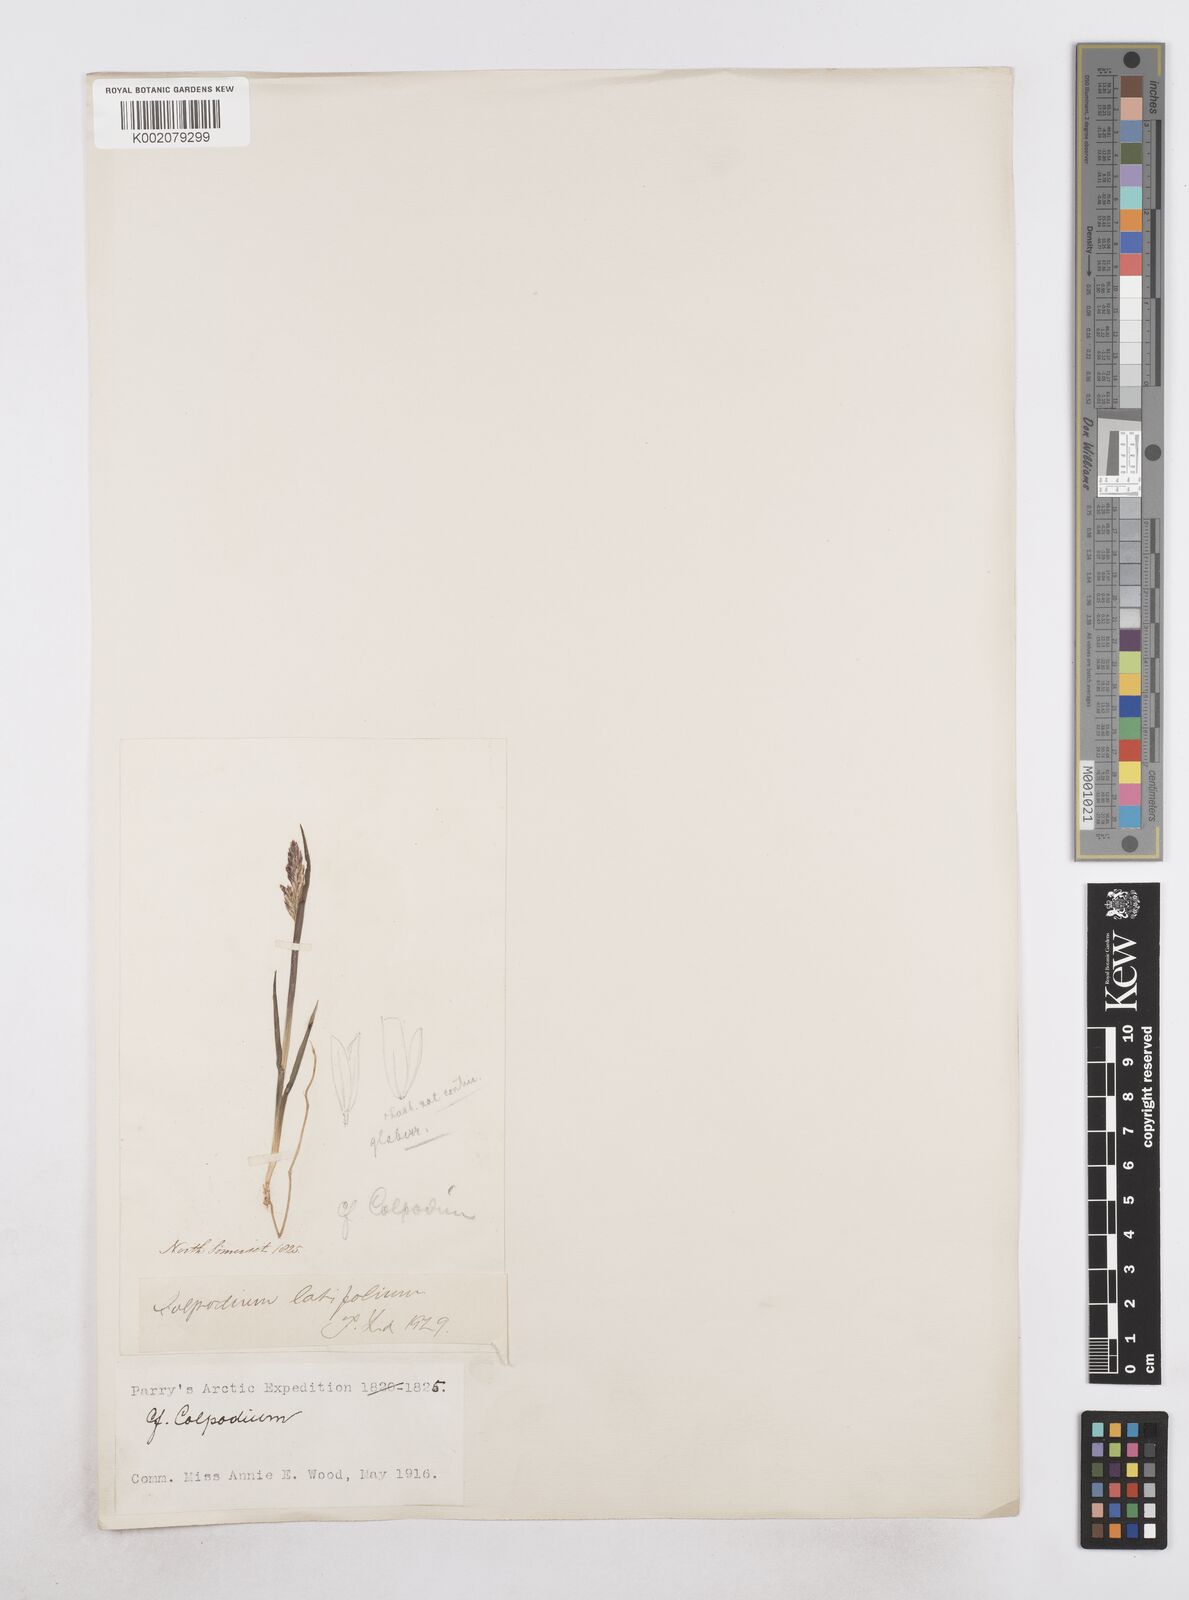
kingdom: Plantae
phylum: Tracheophyta
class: Liliopsida
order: Poales
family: Poaceae
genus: Arctagrostis
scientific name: Arctagrostis latifolia
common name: Arctic grass
